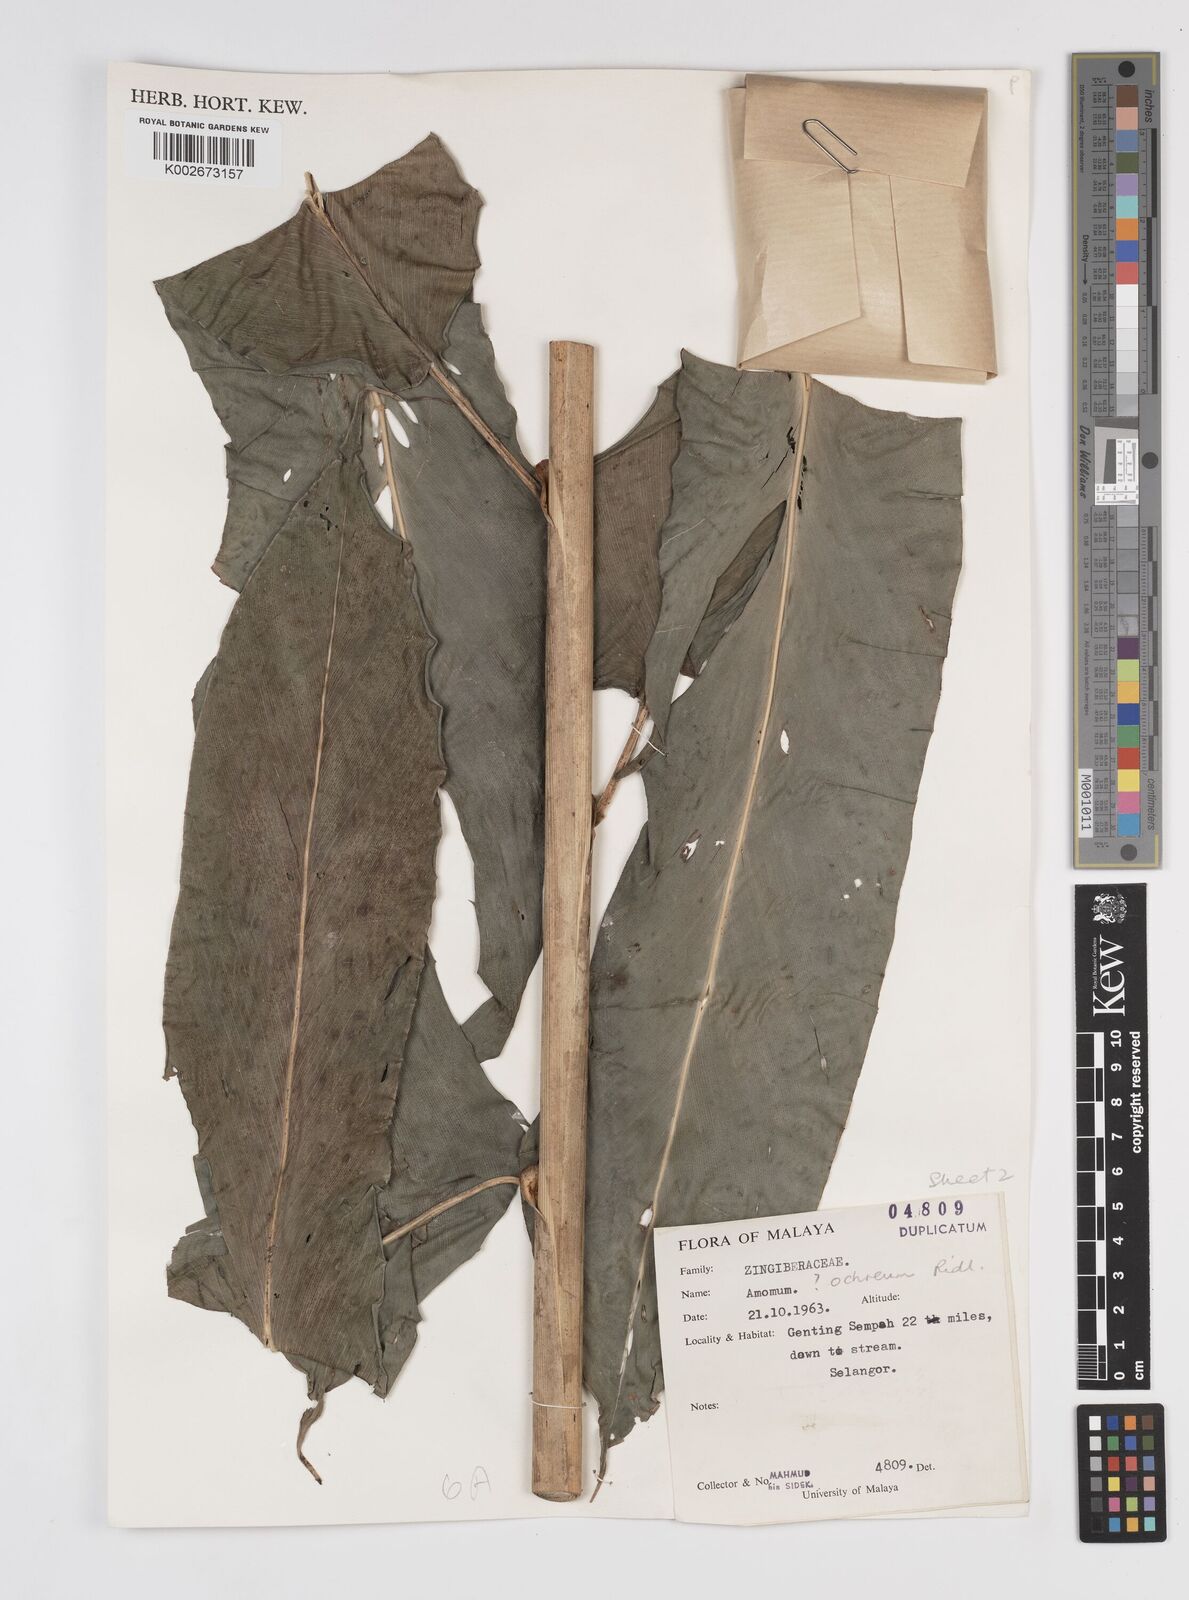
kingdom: Plantae
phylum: Tracheophyta
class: Liliopsida
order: Zingiberales
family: Zingiberaceae
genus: Meistera
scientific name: Meistera ochrea
